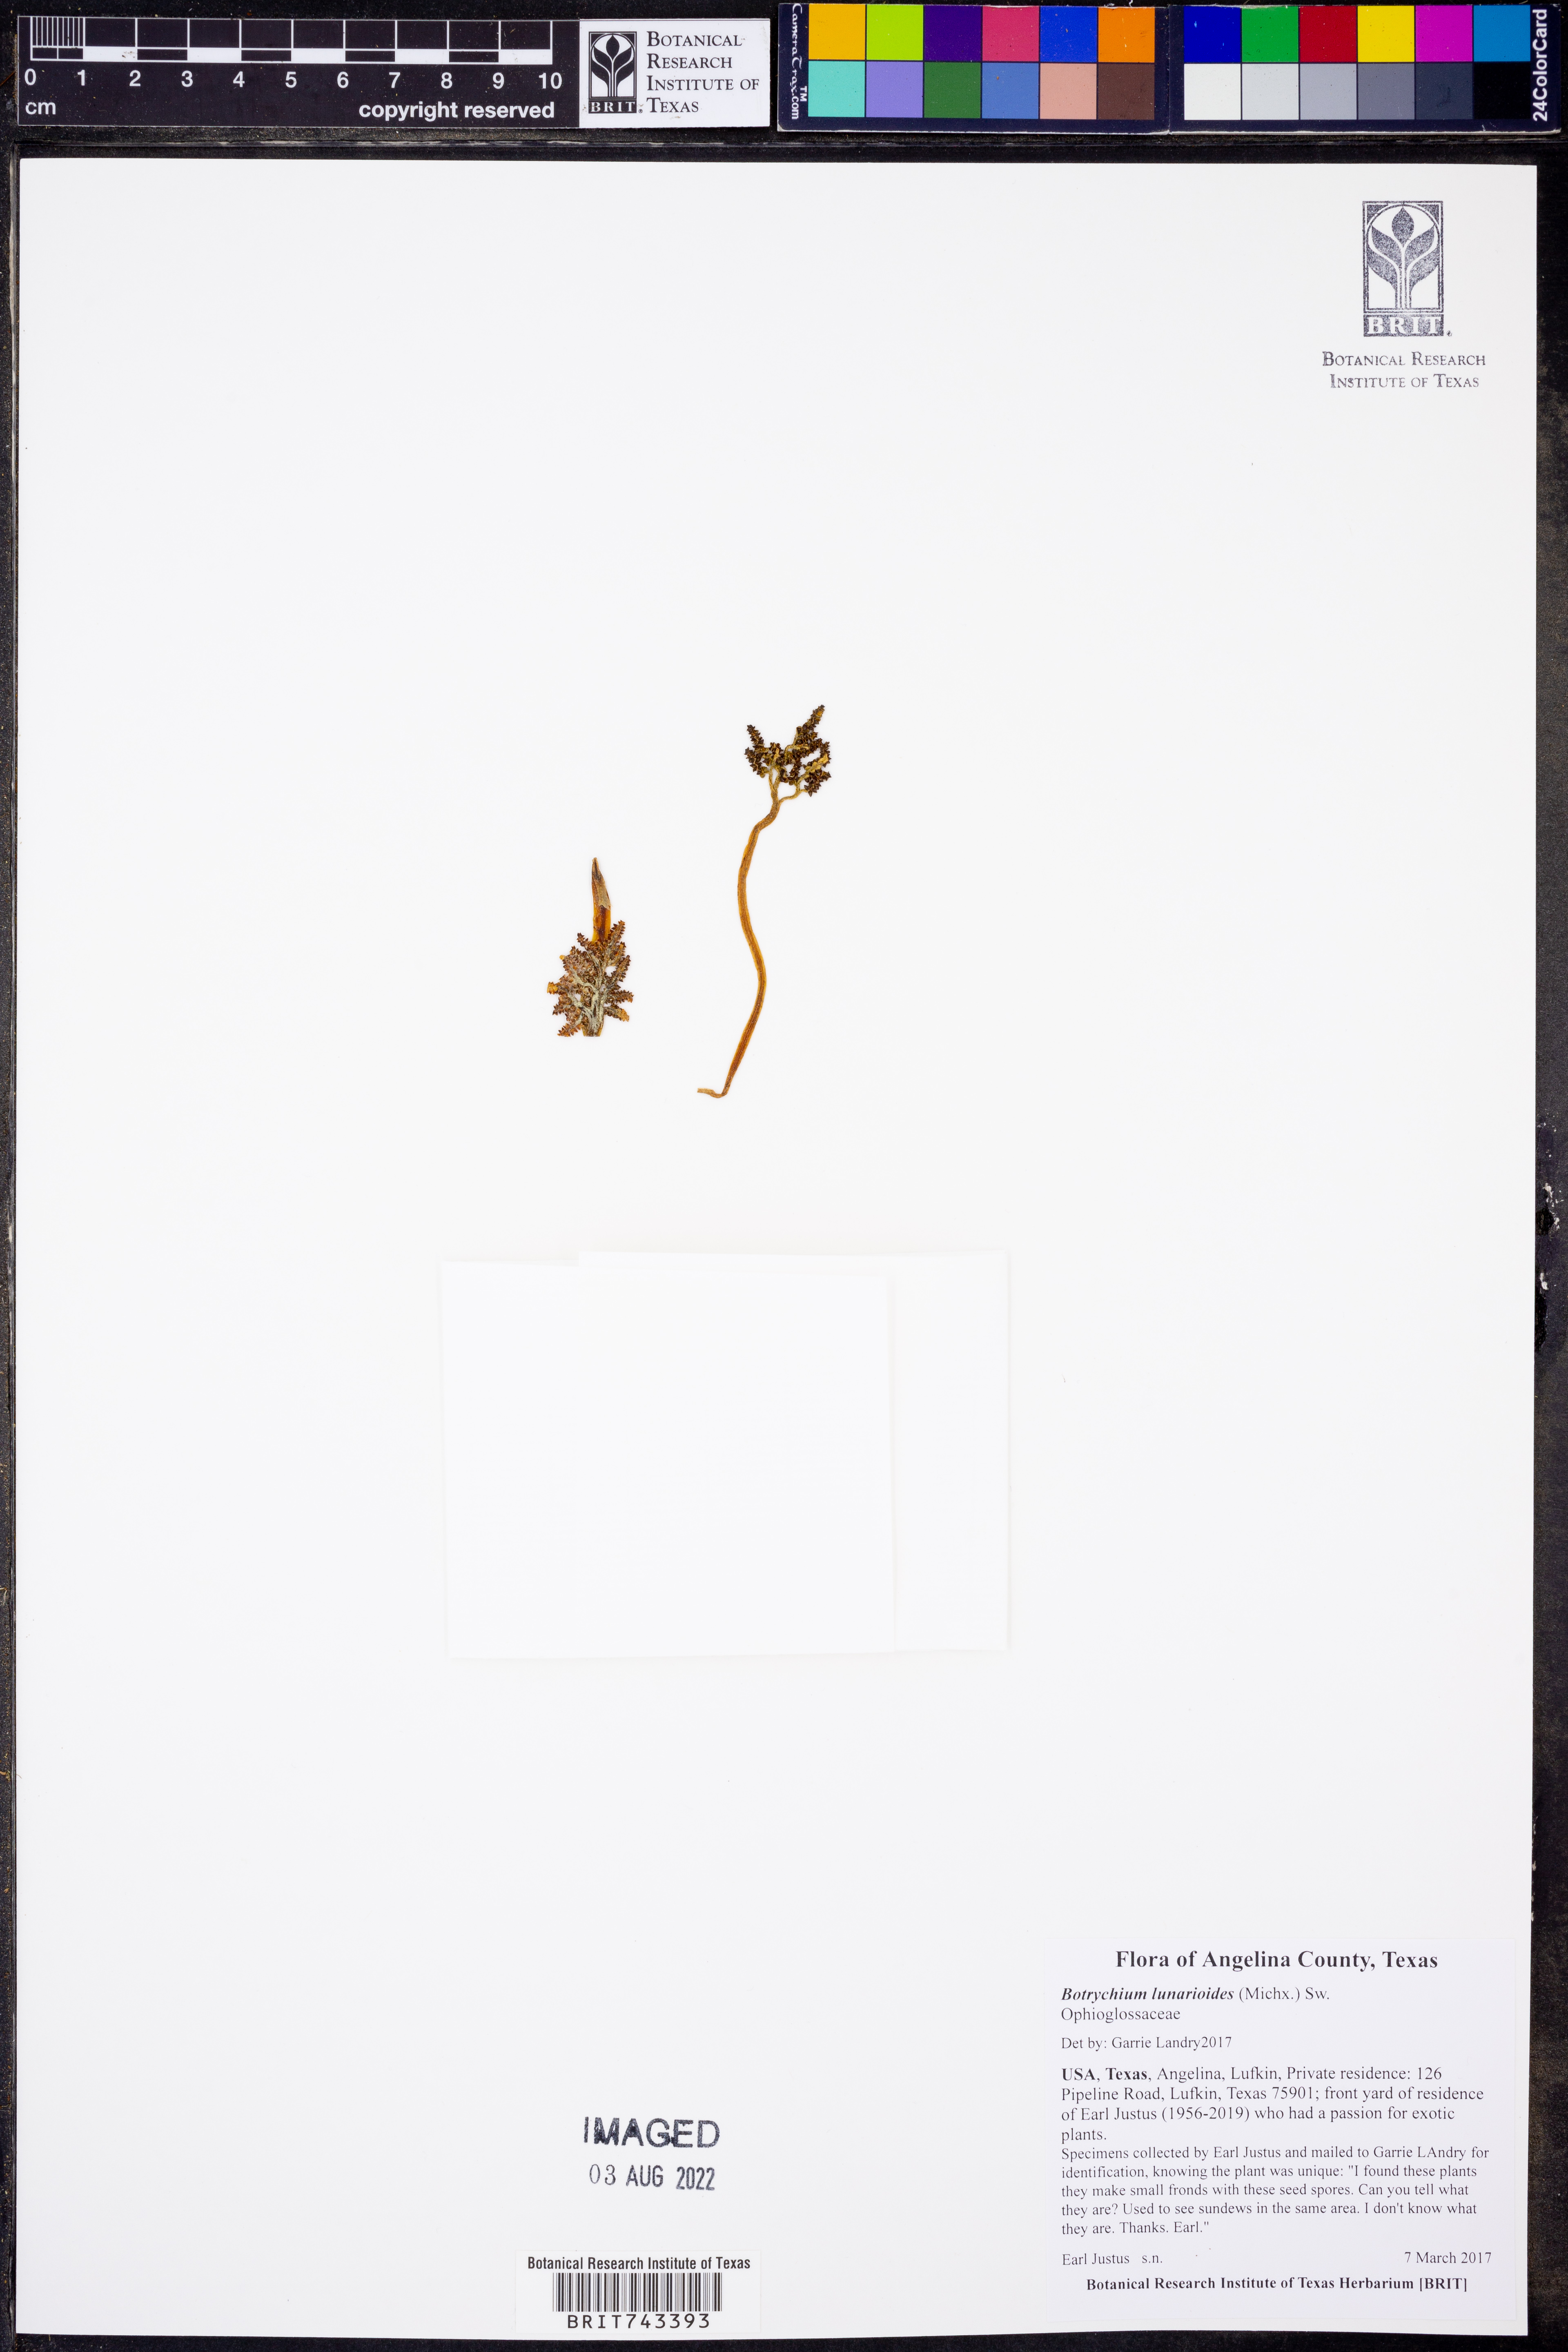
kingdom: Plantae
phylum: Tracheophyta
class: Polypodiopsida
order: Ophioglossales
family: Ophioglossaceae
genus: Sceptridium
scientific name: Sceptridium lunarioides
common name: Prostrate grapefern
